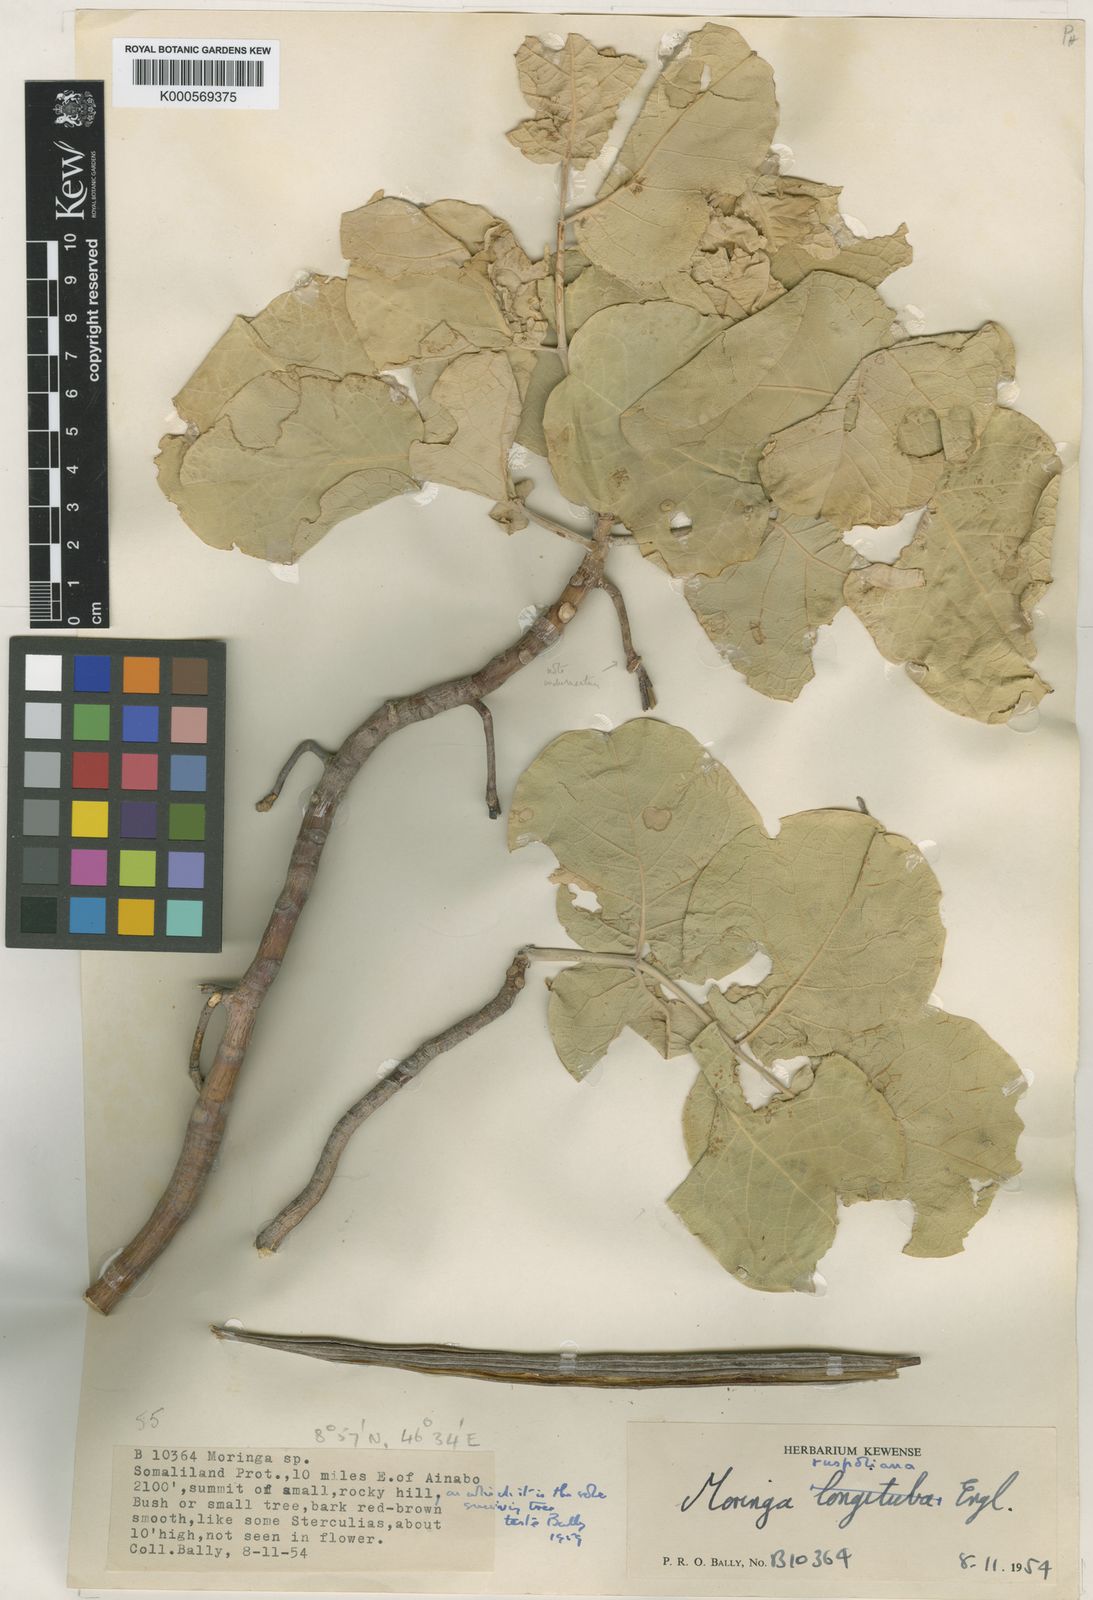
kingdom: Plantae
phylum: Tracheophyta
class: Magnoliopsida
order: Brassicales
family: Moringaceae
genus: Moringa
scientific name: Moringa ruspoliana
